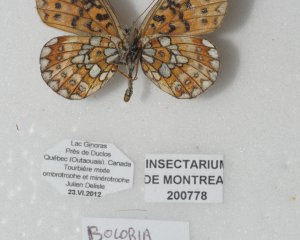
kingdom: Animalia
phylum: Arthropoda
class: Insecta
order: Lepidoptera
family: Nymphalidae
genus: Boloria
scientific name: Boloria eunomia
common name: Bog Fritillary
